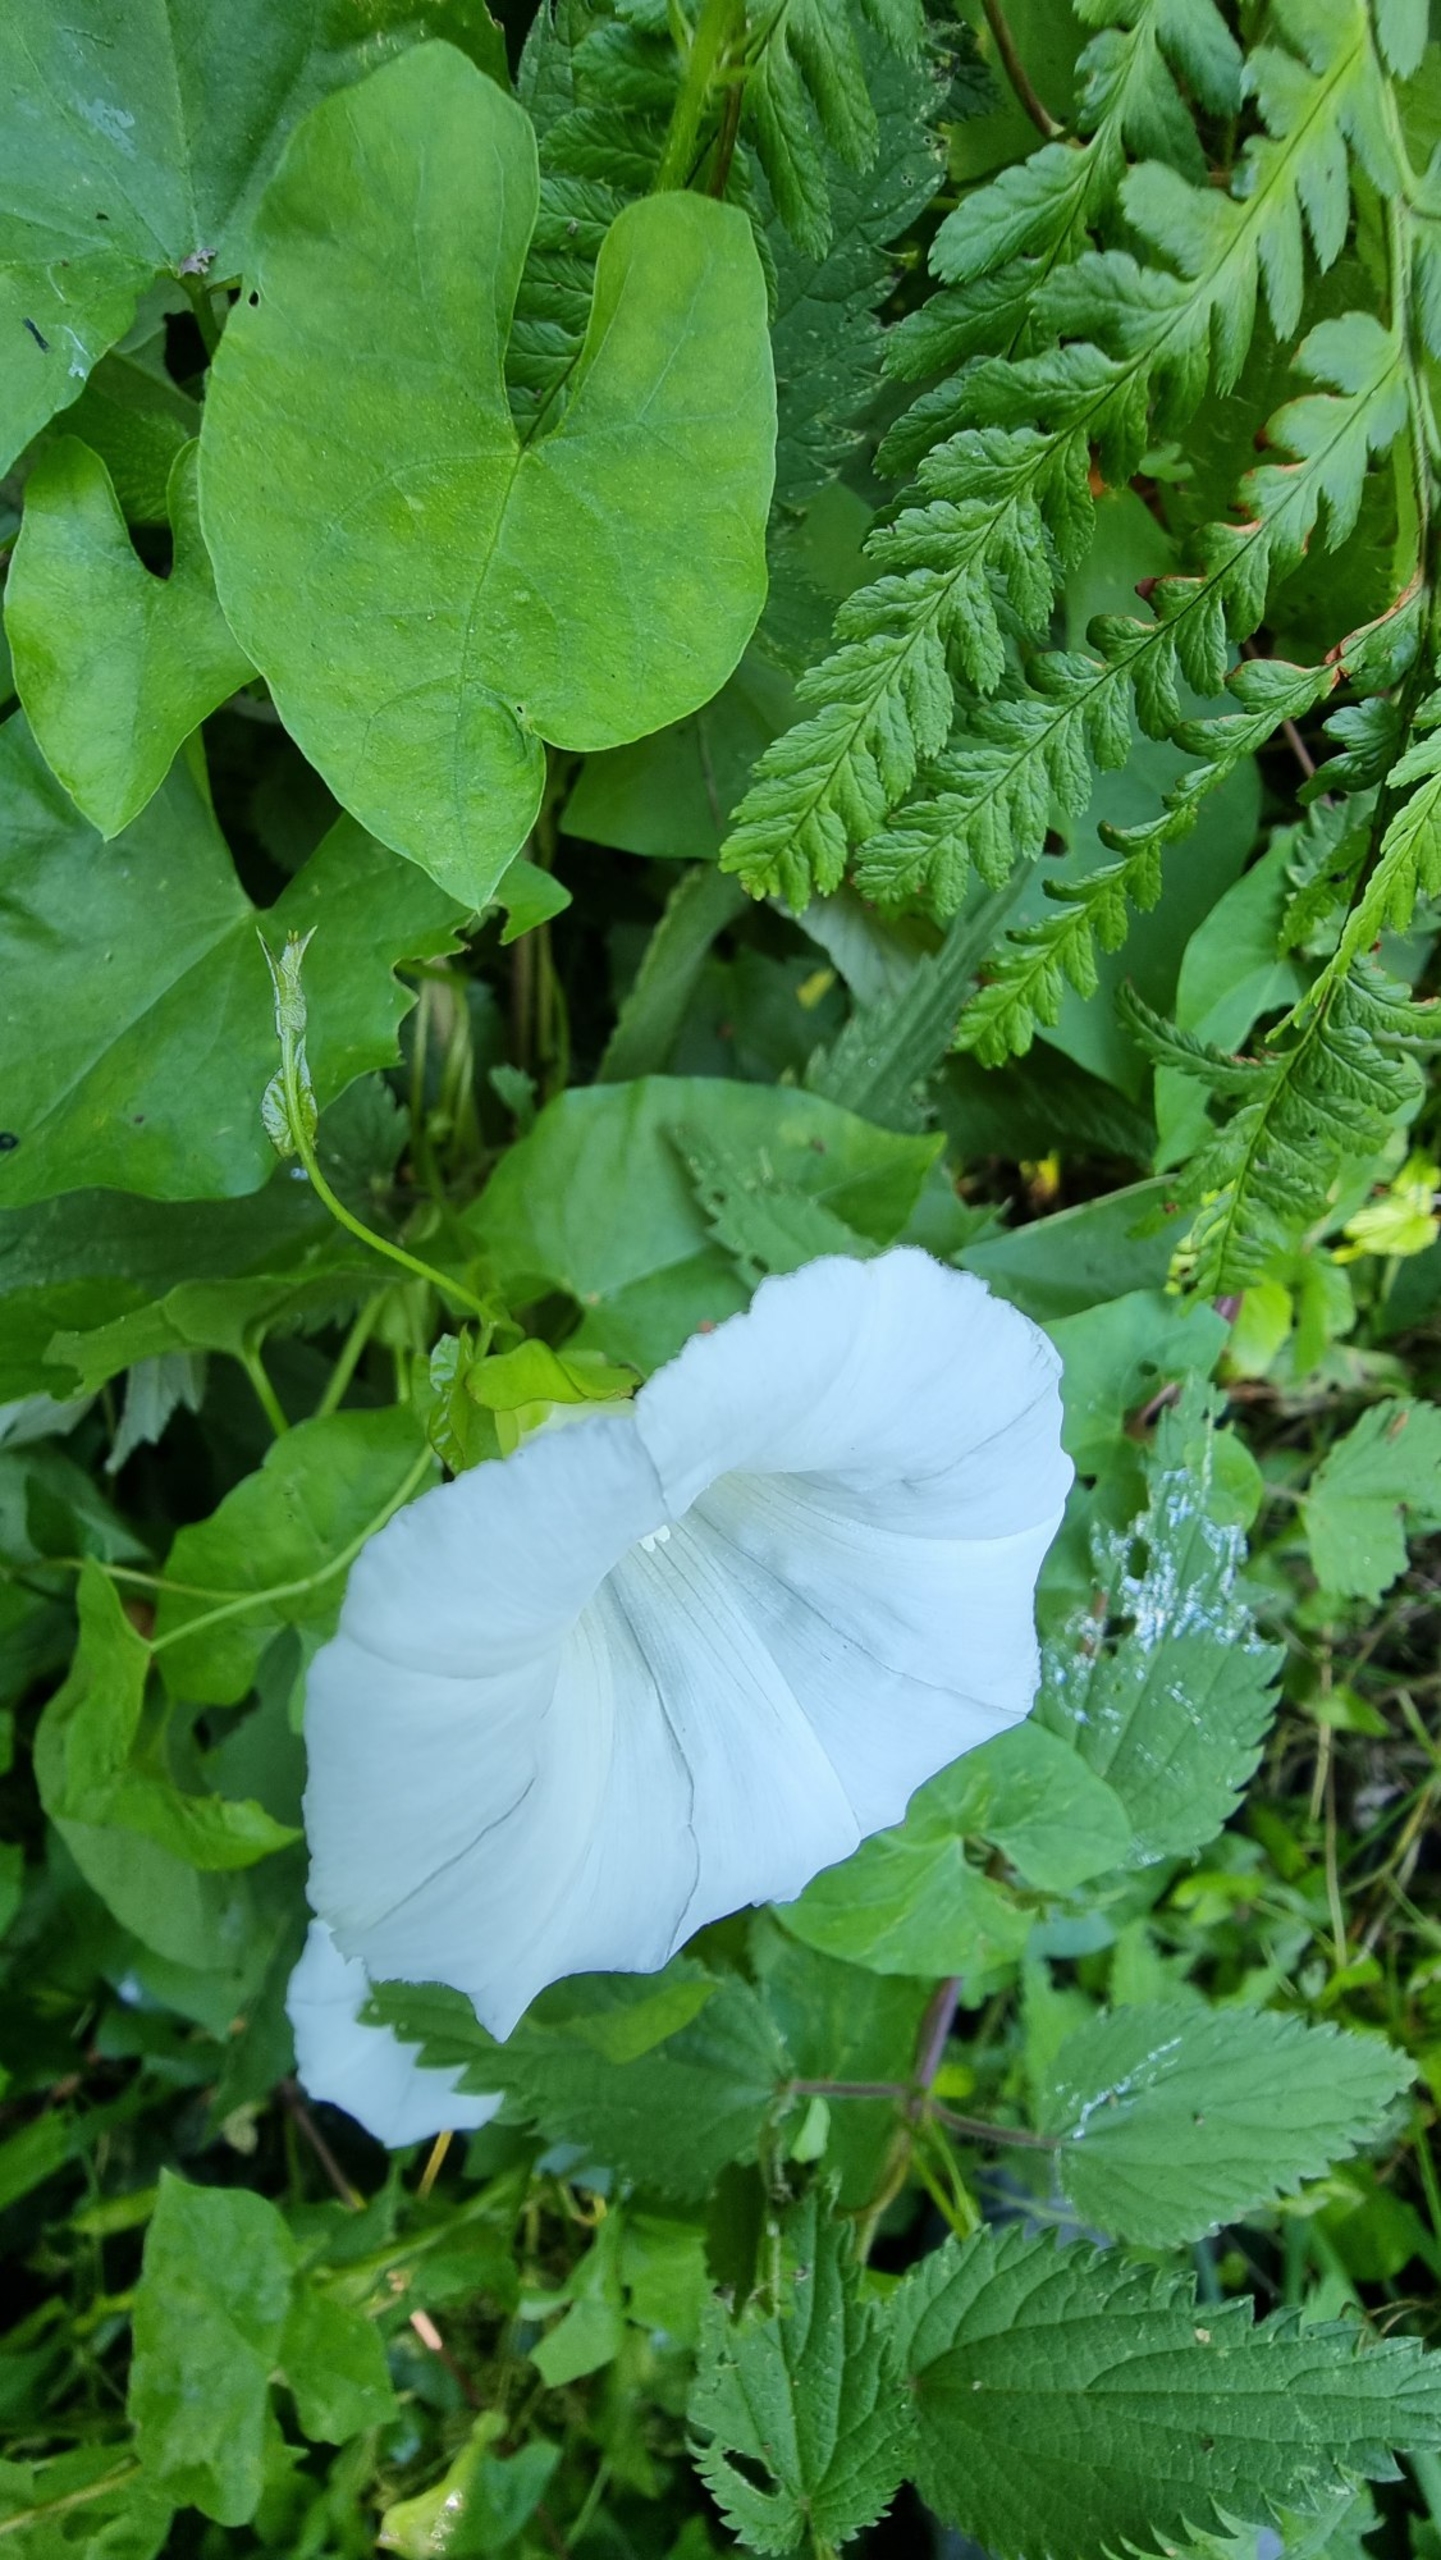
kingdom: Plantae
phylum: Tracheophyta
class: Magnoliopsida
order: Solanales
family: Convolvulaceae
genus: Calystegia
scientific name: Calystegia sepium
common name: Gærde-snerle
